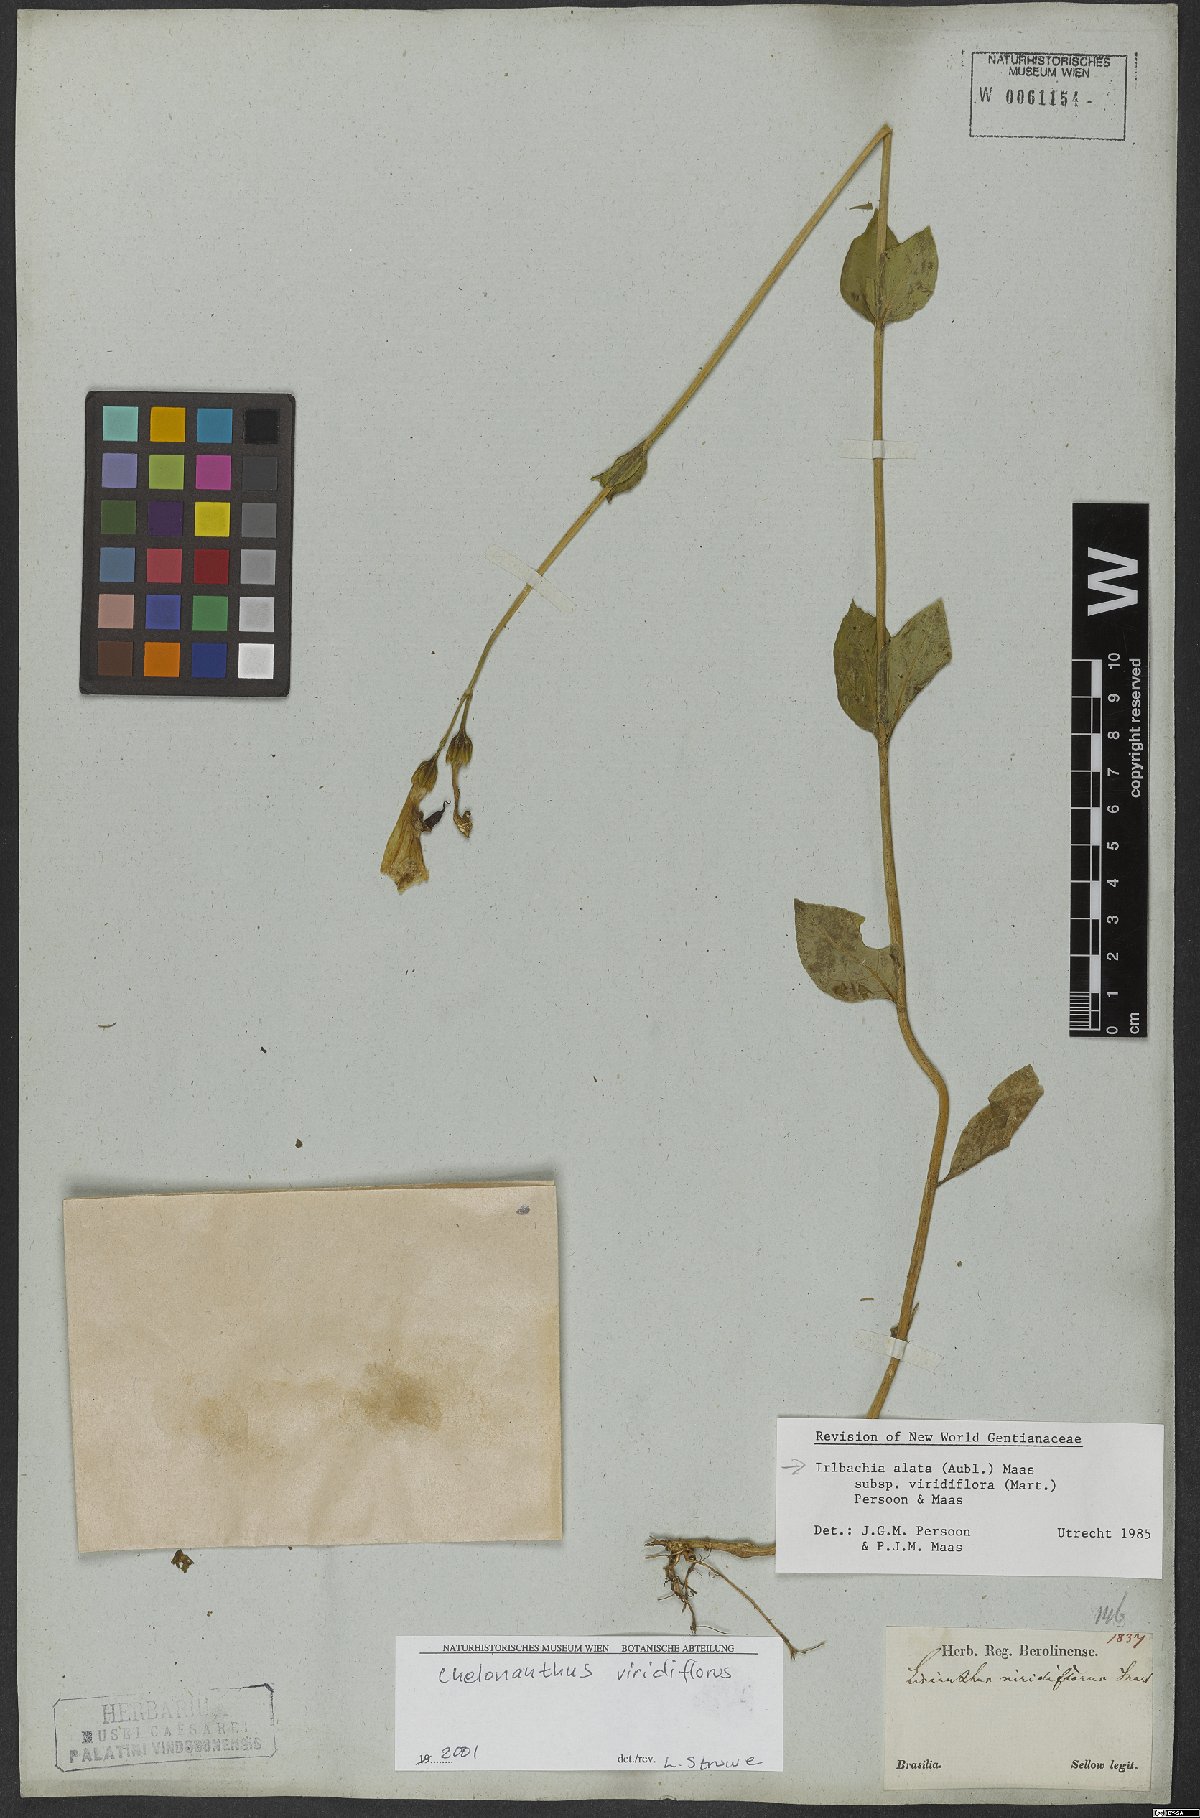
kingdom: Plantae
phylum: Tracheophyta
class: Magnoliopsida
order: Gentianales
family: Gentianaceae
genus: Chelonanthus
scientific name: Chelonanthus viridiflorus
